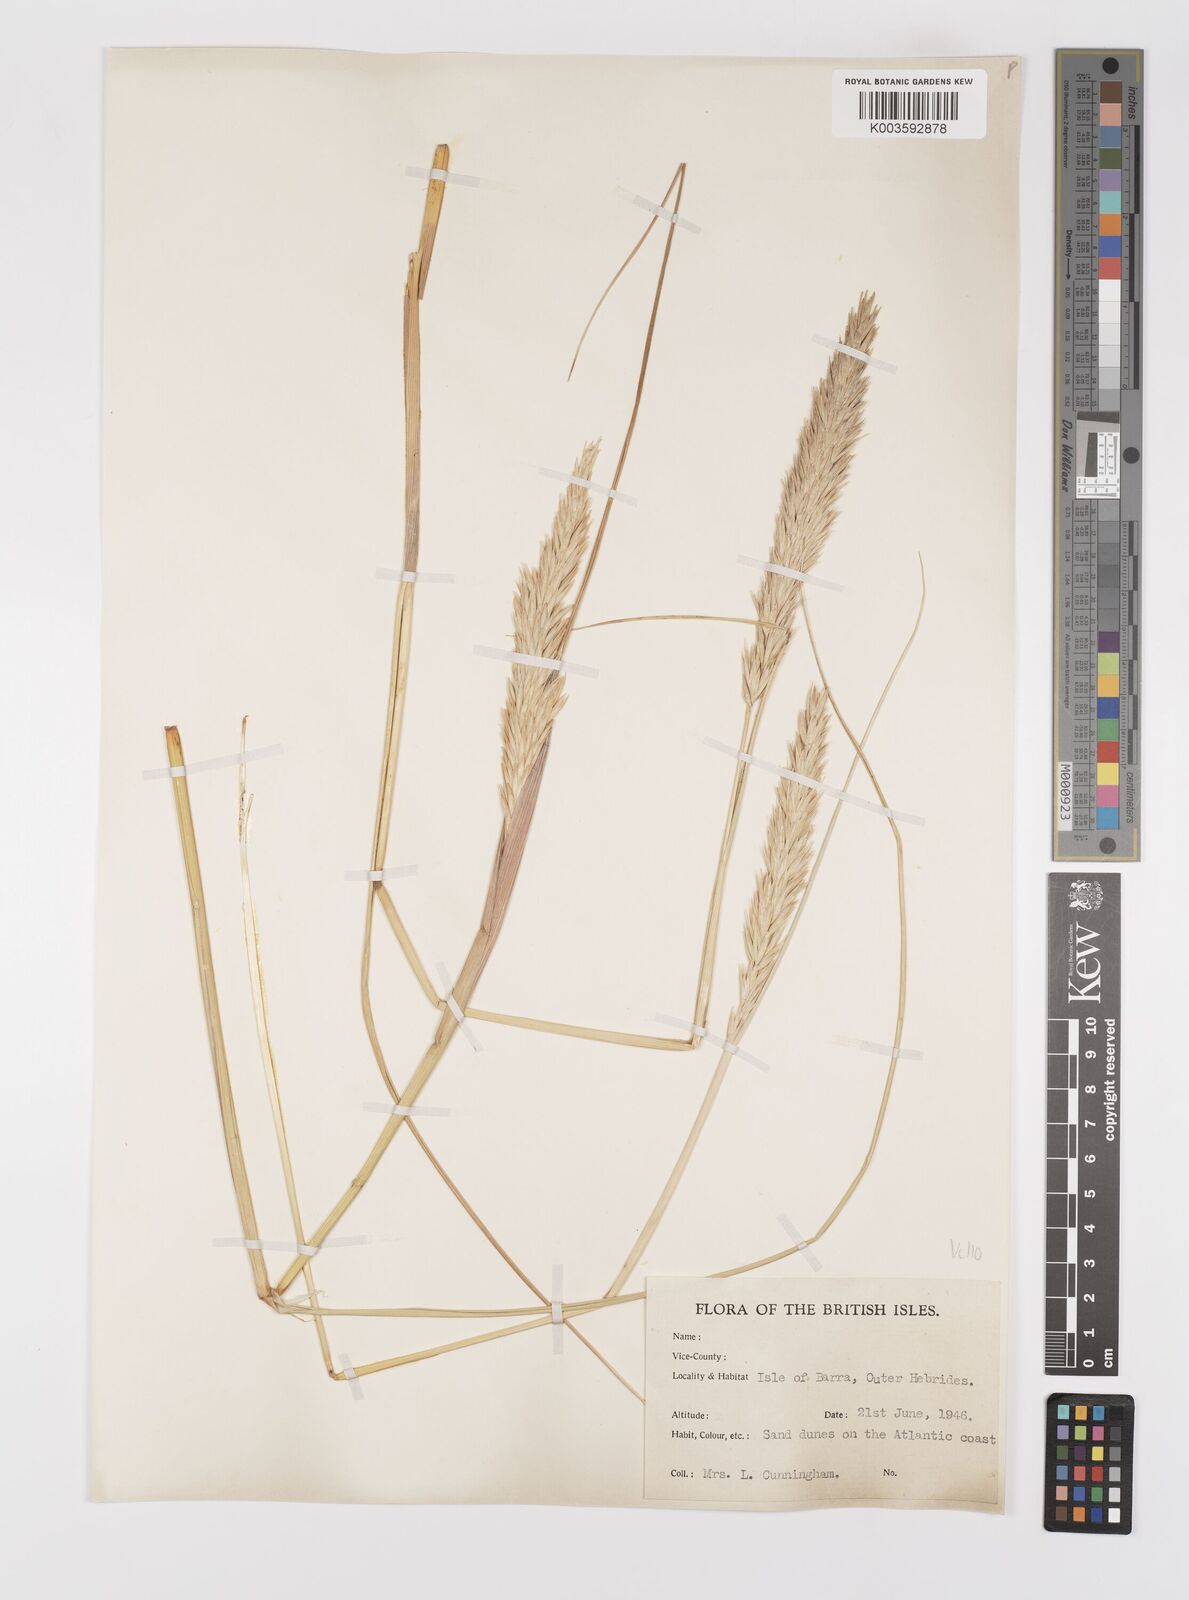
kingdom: Plantae
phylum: Tracheophyta
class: Liliopsida
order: Poales
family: Poaceae
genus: Calamagrostis
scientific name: Calamagrostis arenaria
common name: European beachgrass
